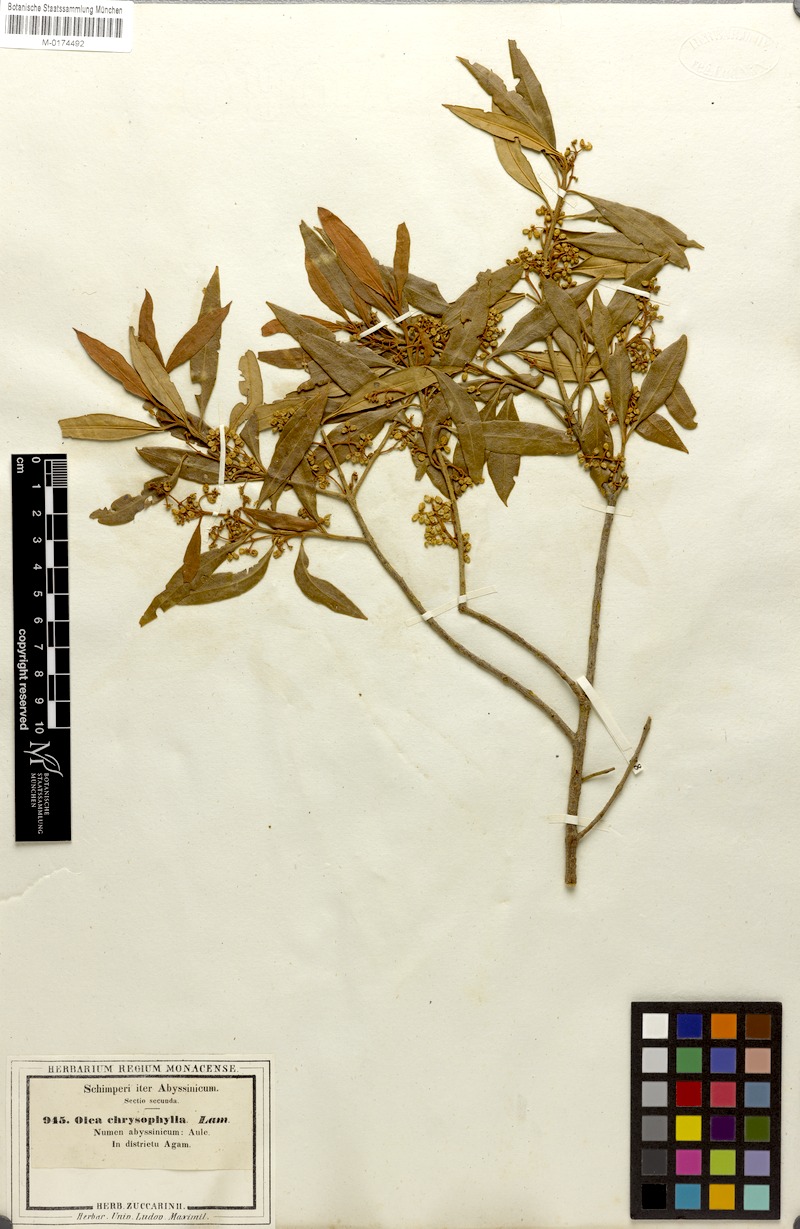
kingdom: Plantae
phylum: Tracheophyta
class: Magnoliopsida
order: Lamiales
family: Oleaceae
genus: Olea
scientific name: Olea europaea
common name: Olive
